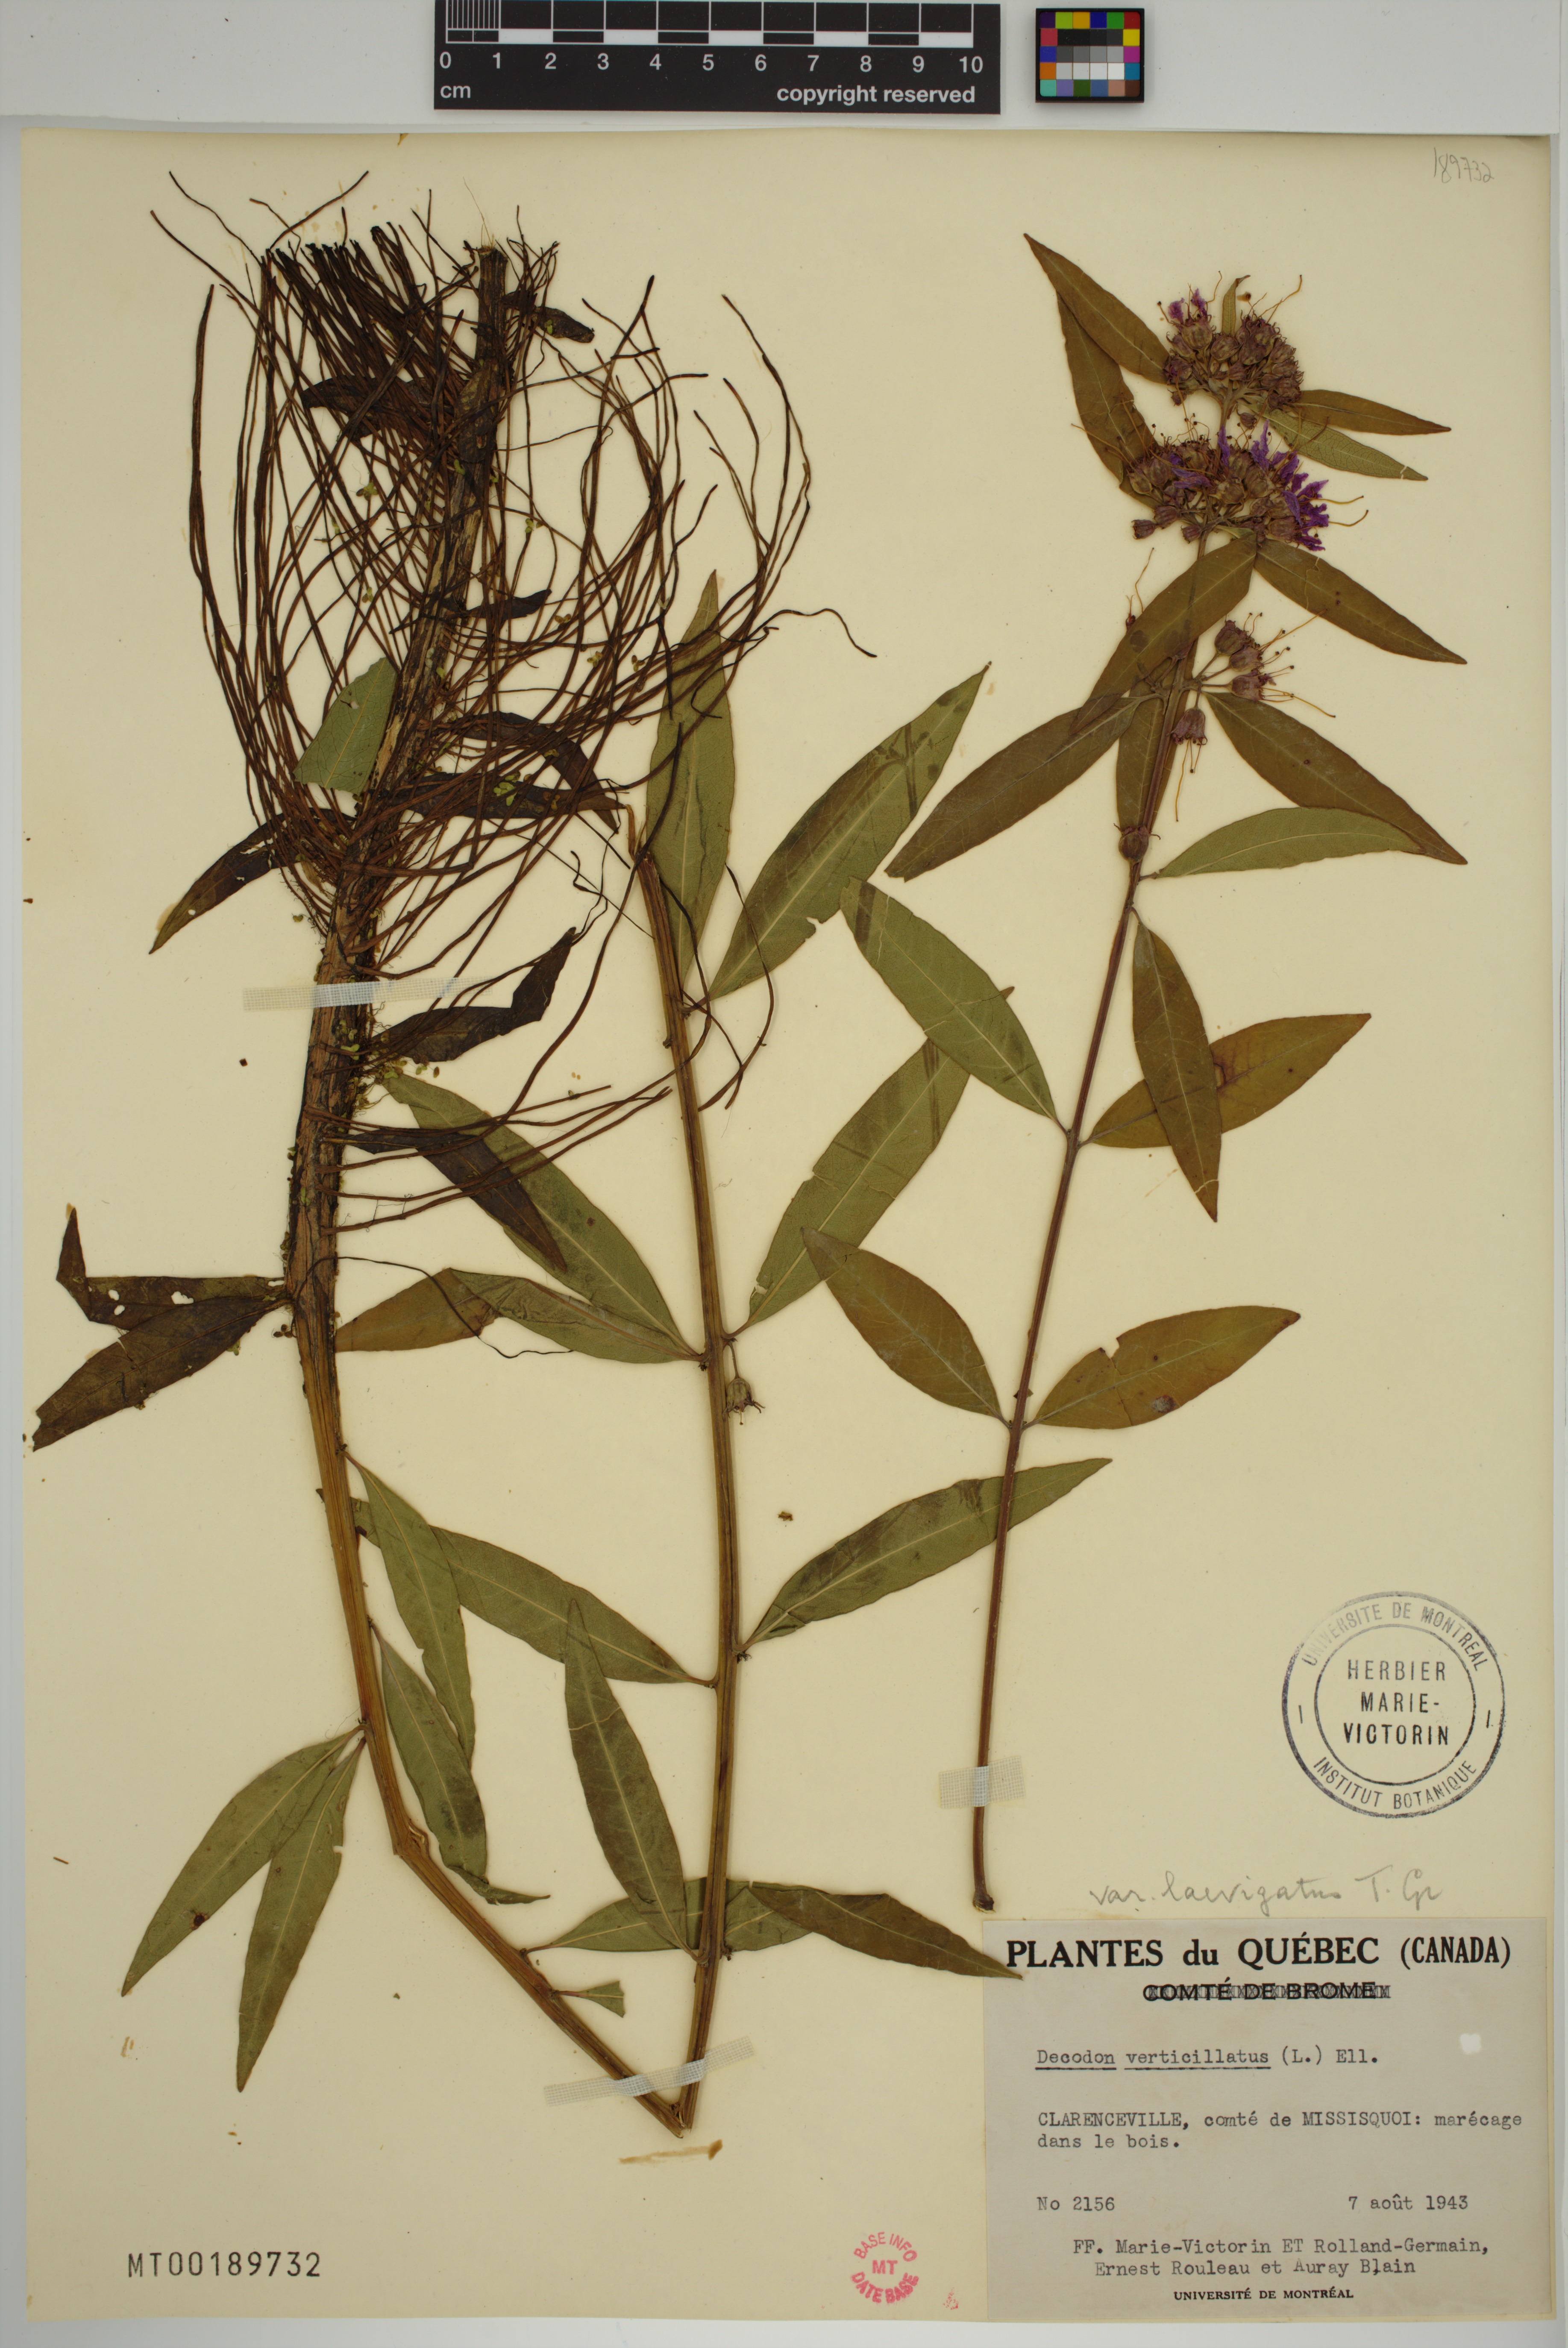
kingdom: Plantae
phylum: Tracheophyta
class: Magnoliopsida
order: Myrtales
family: Lythraceae
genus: Decodon
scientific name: Decodon verticillatus
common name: Hairy swamp loosestrife
